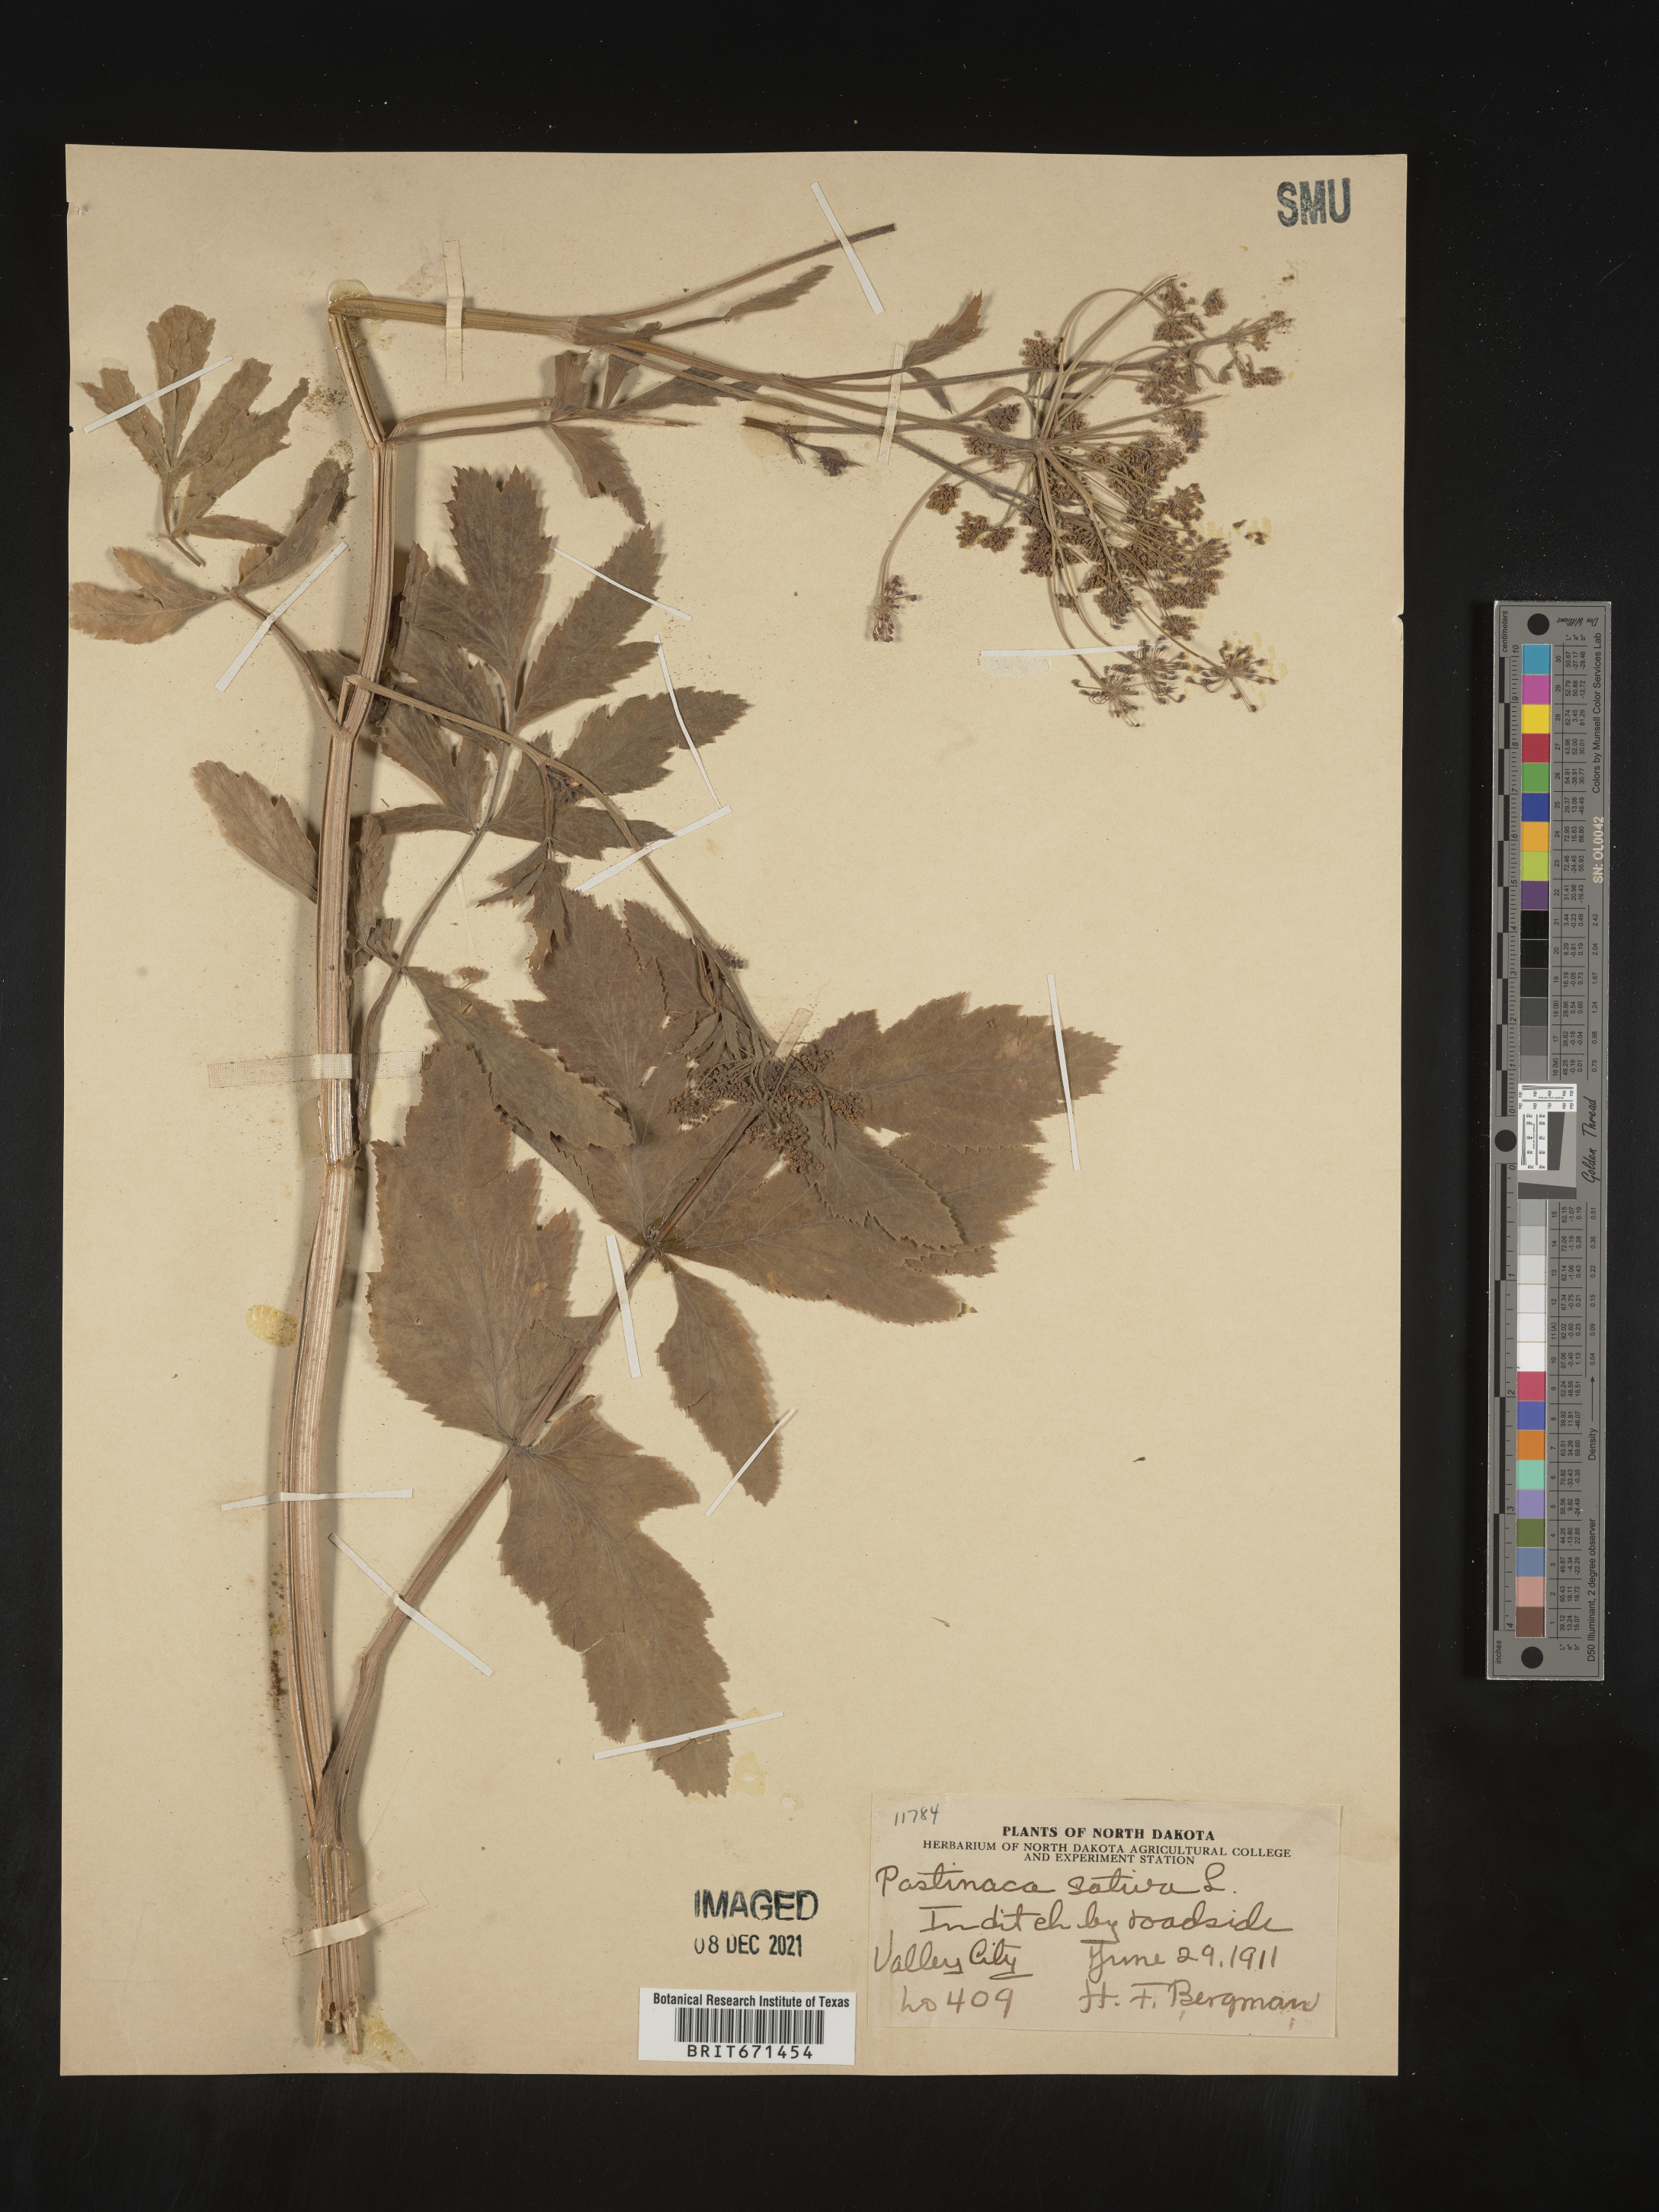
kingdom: Plantae
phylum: Tracheophyta
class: Magnoliopsida
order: Apiales
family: Apiaceae
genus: Pastinaca
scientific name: Pastinaca
